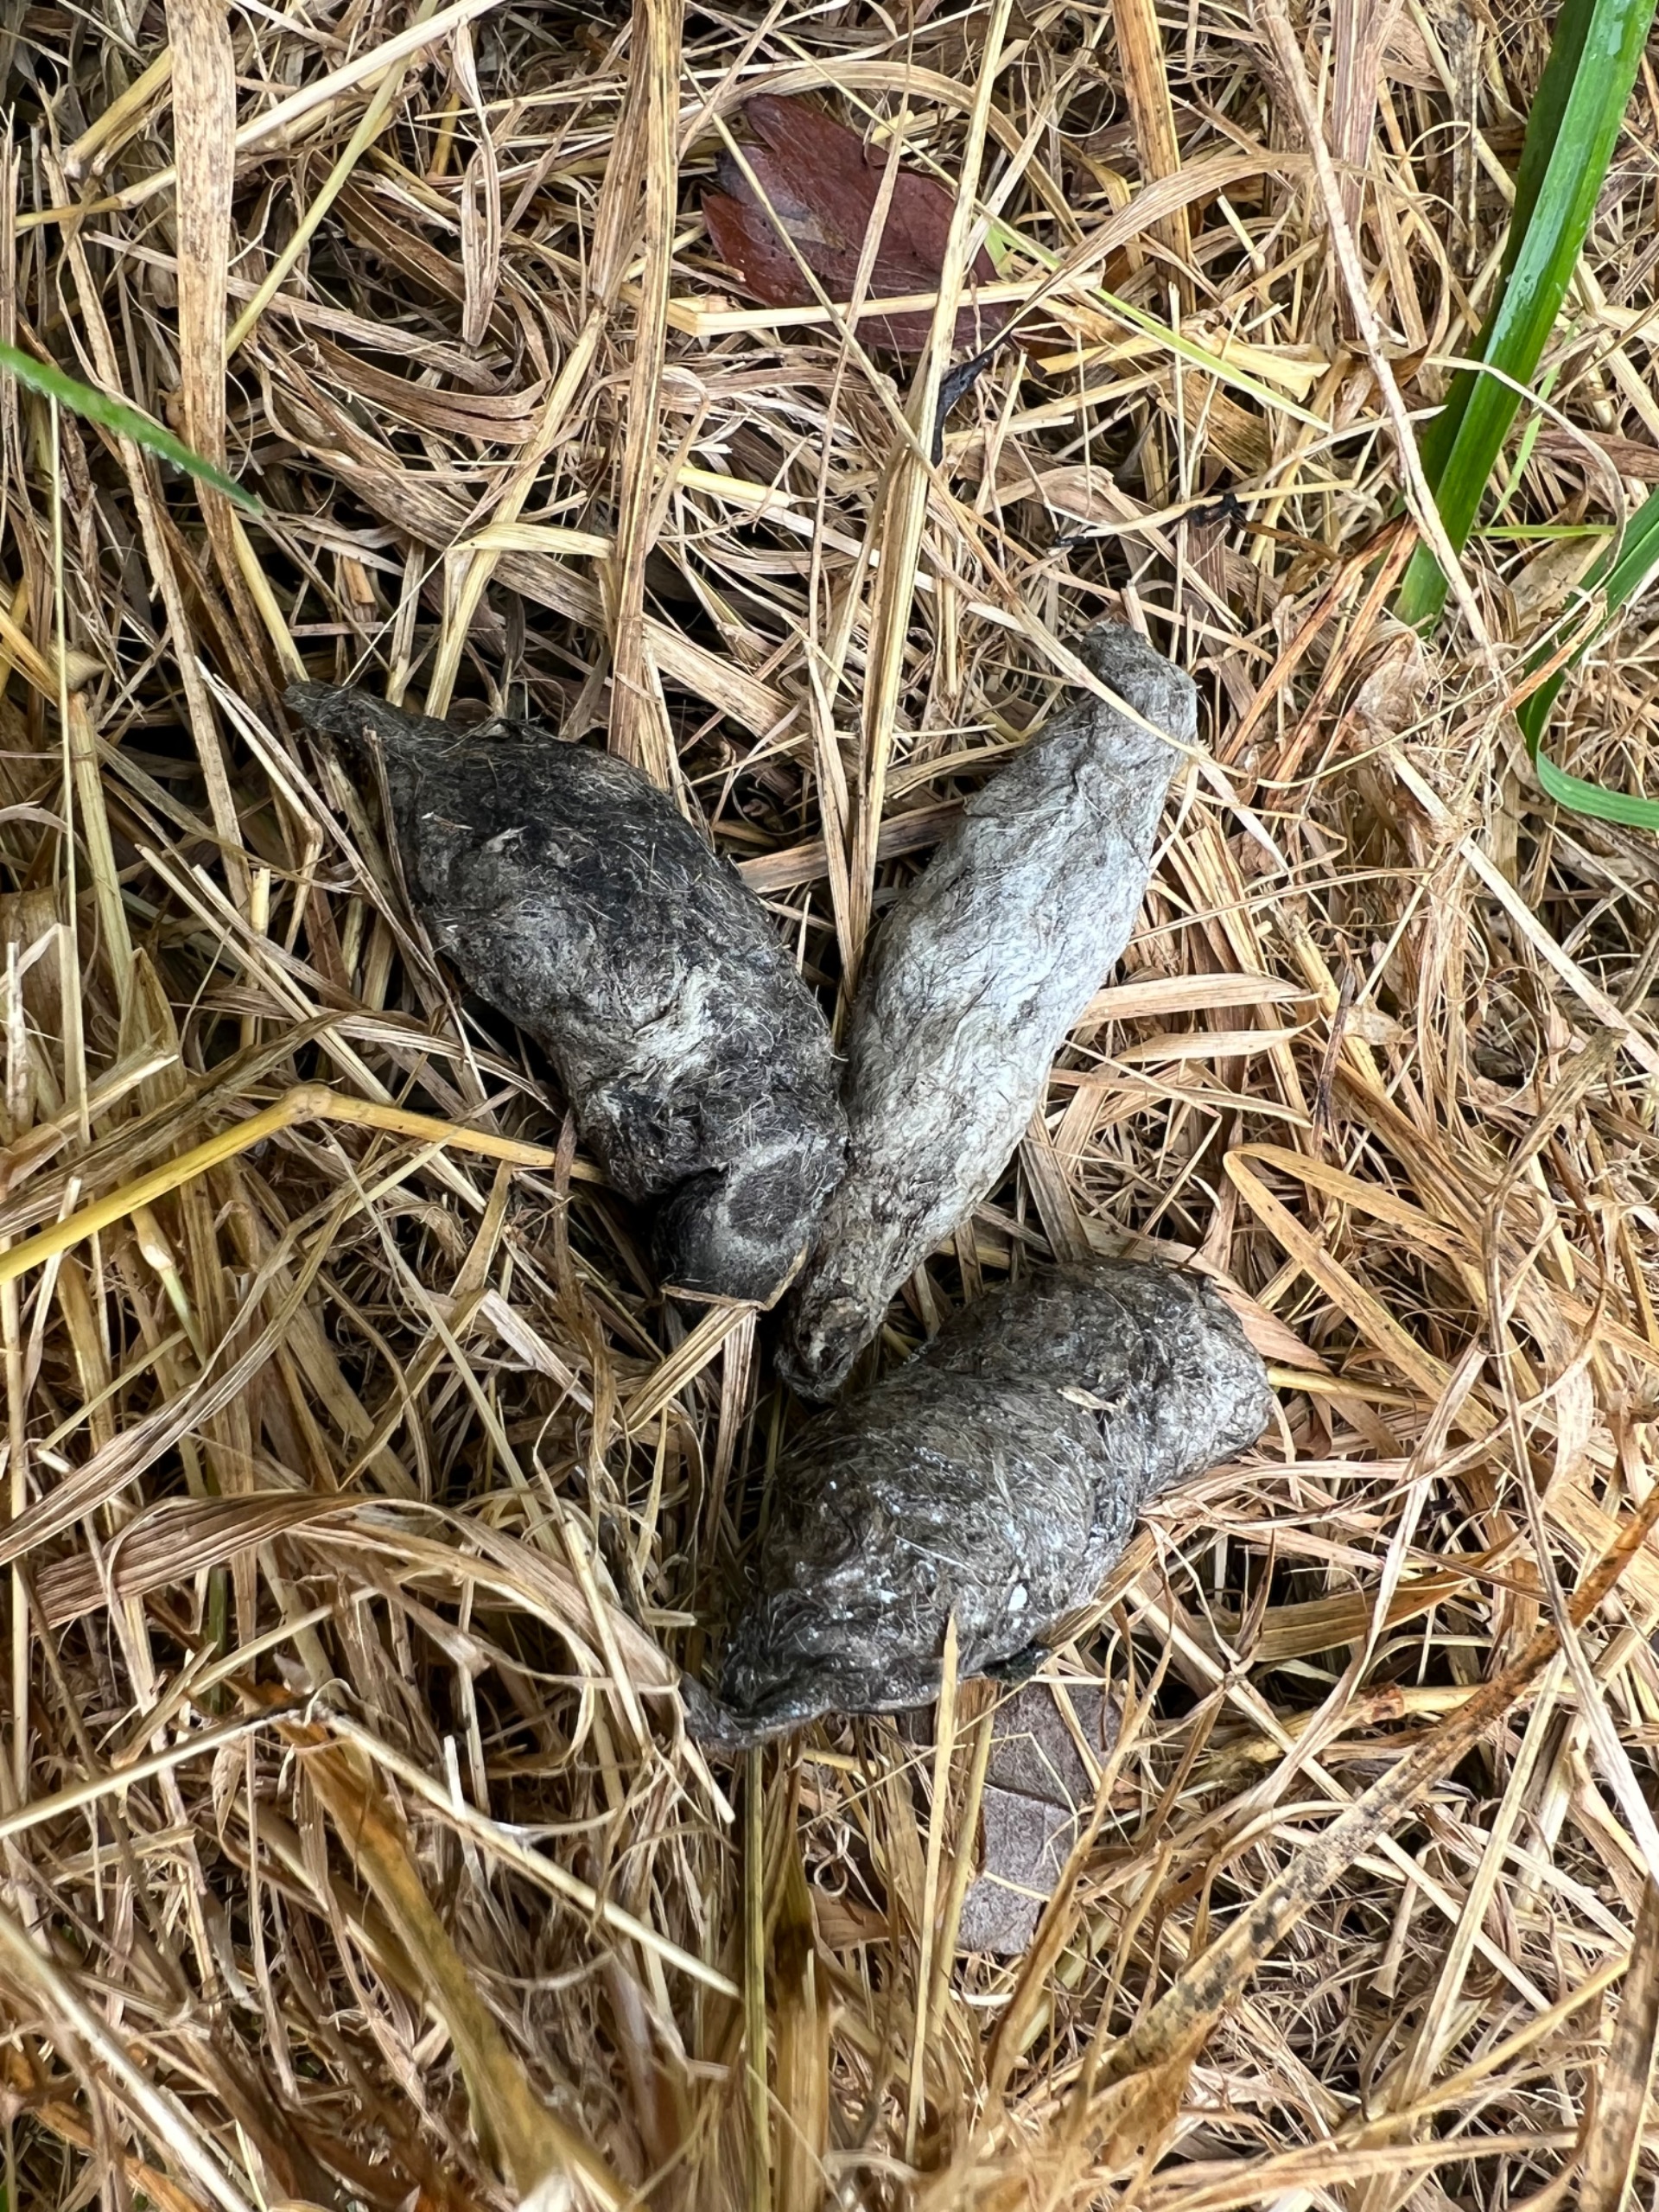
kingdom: Animalia
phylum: Chordata
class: Mammalia
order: Carnivora
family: Canidae
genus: Vulpes
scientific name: Vulpes vulpes
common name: Ræv
